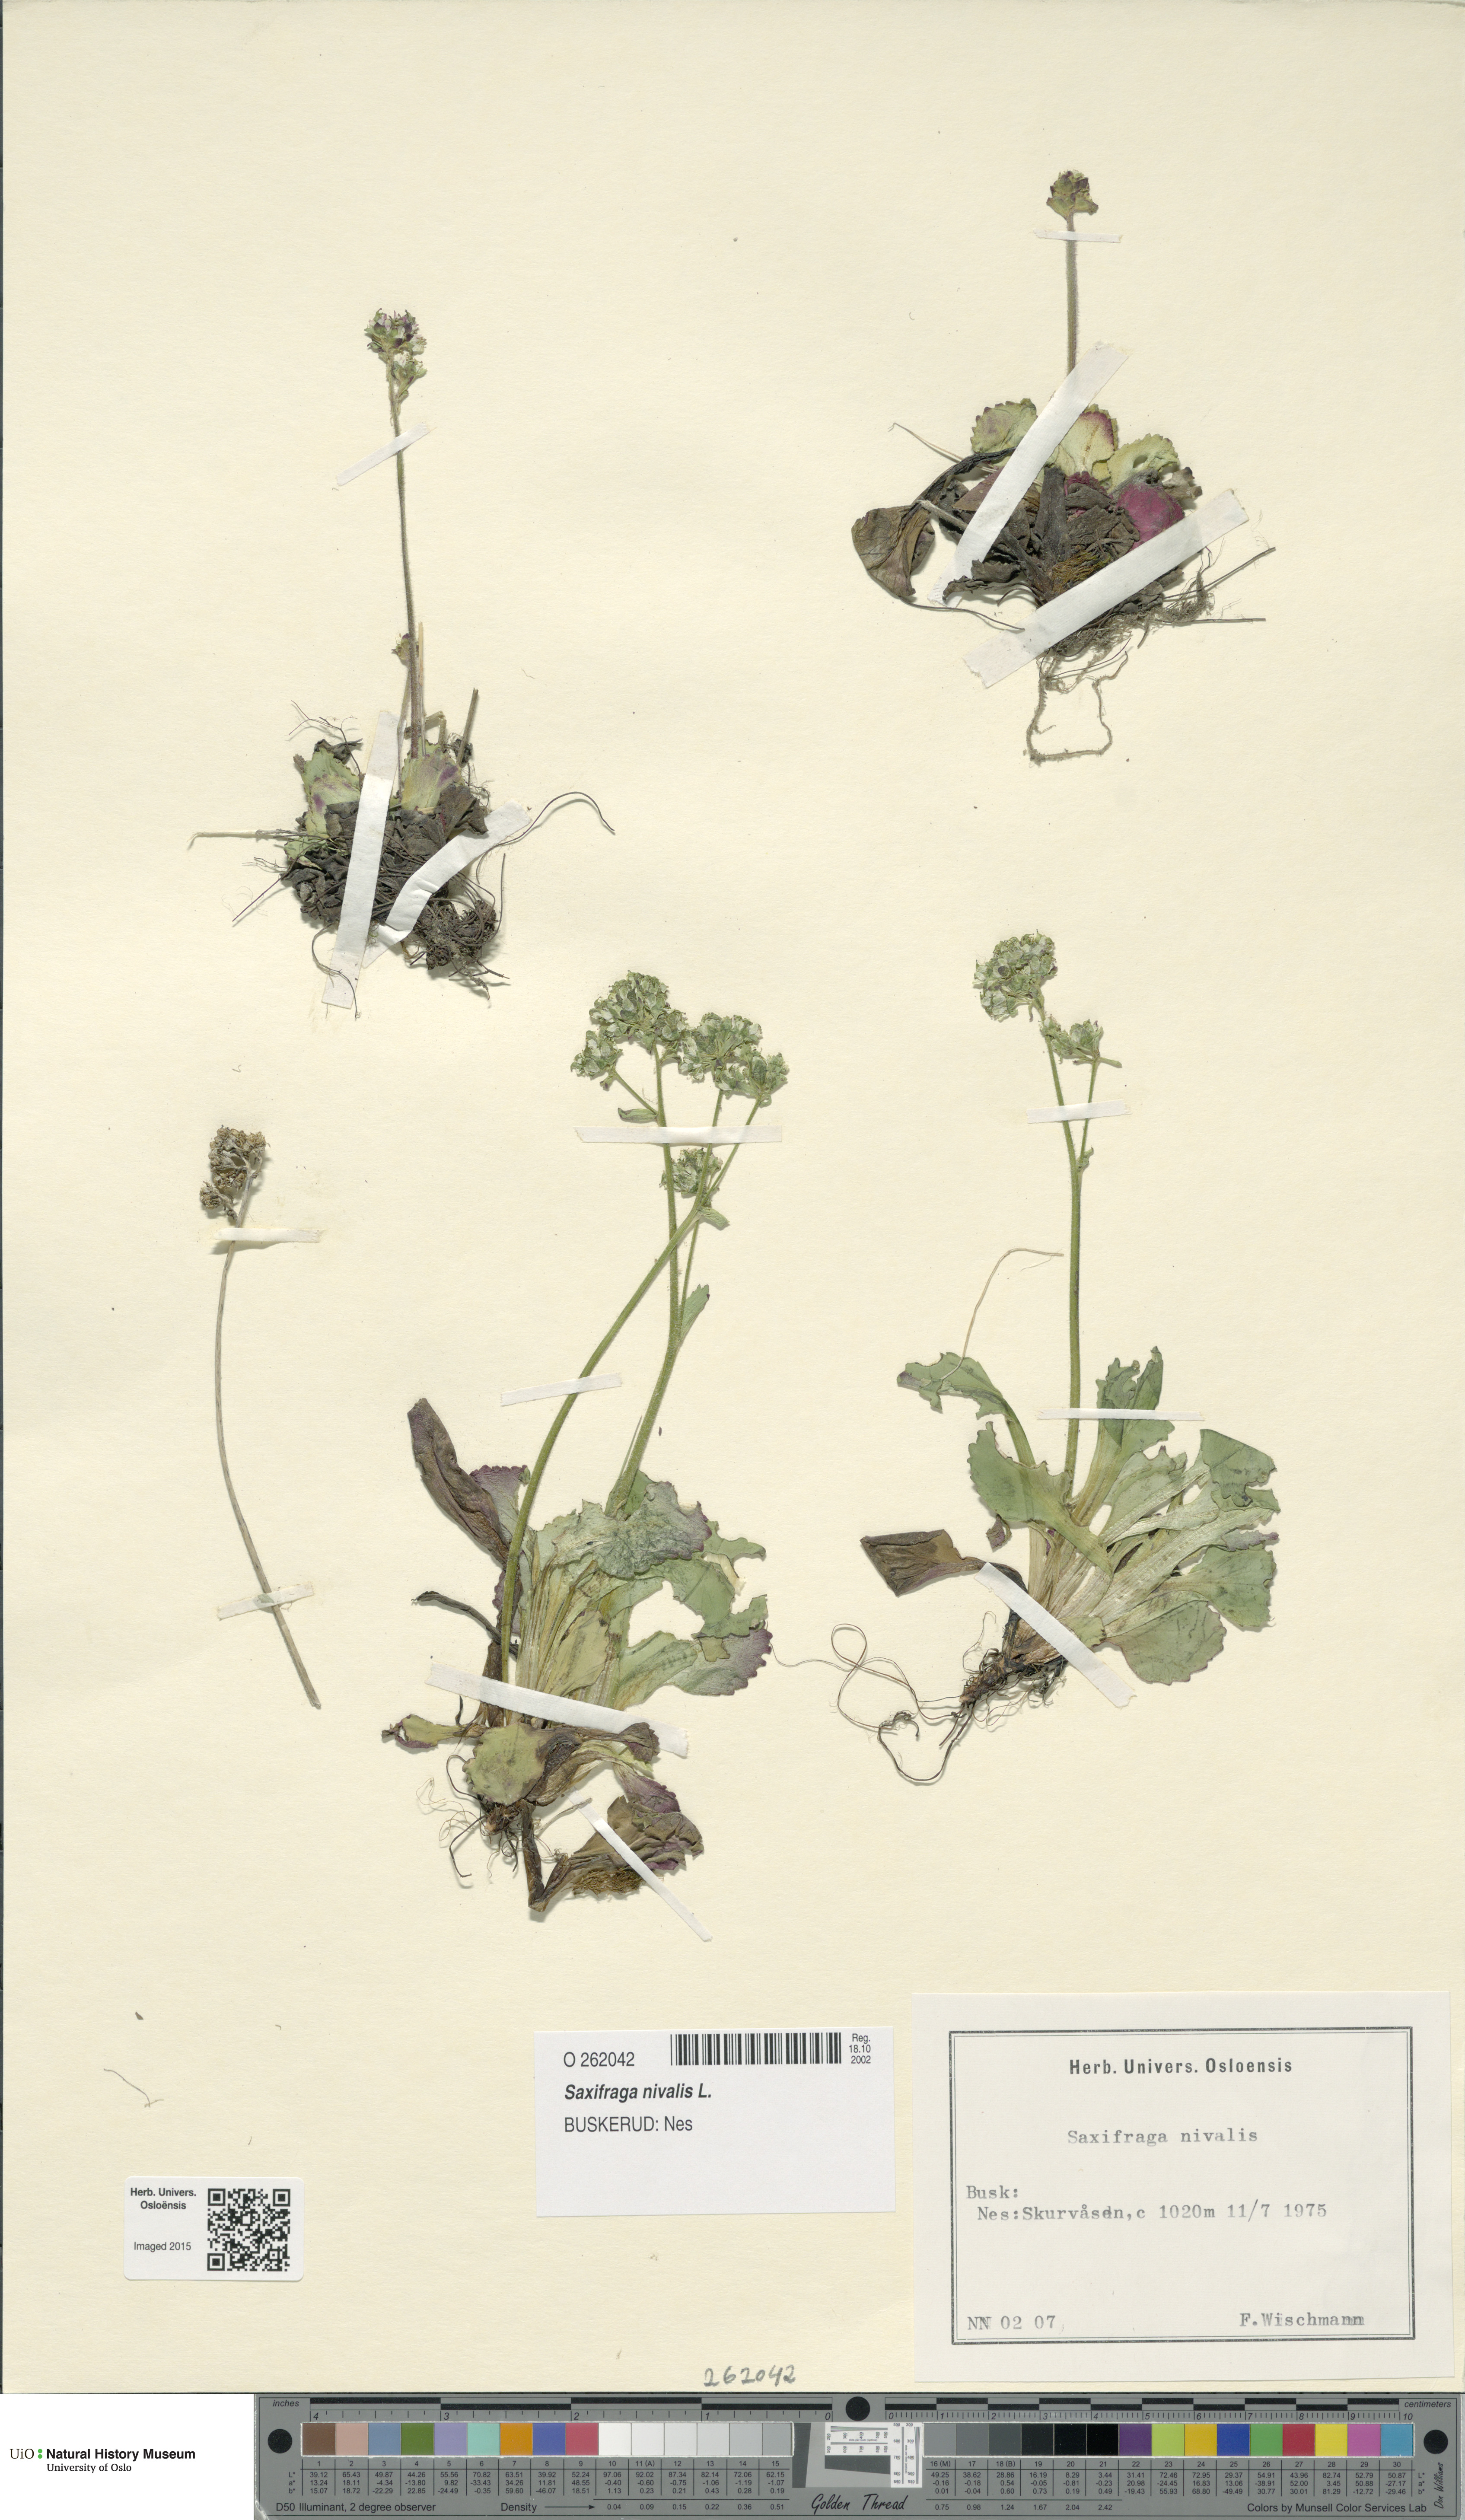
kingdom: Plantae
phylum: Tracheophyta
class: Magnoliopsida
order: Saxifragales
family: Saxifragaceae
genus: Micranthes
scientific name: Micranthes nivalis
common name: Alpine saxifrage
